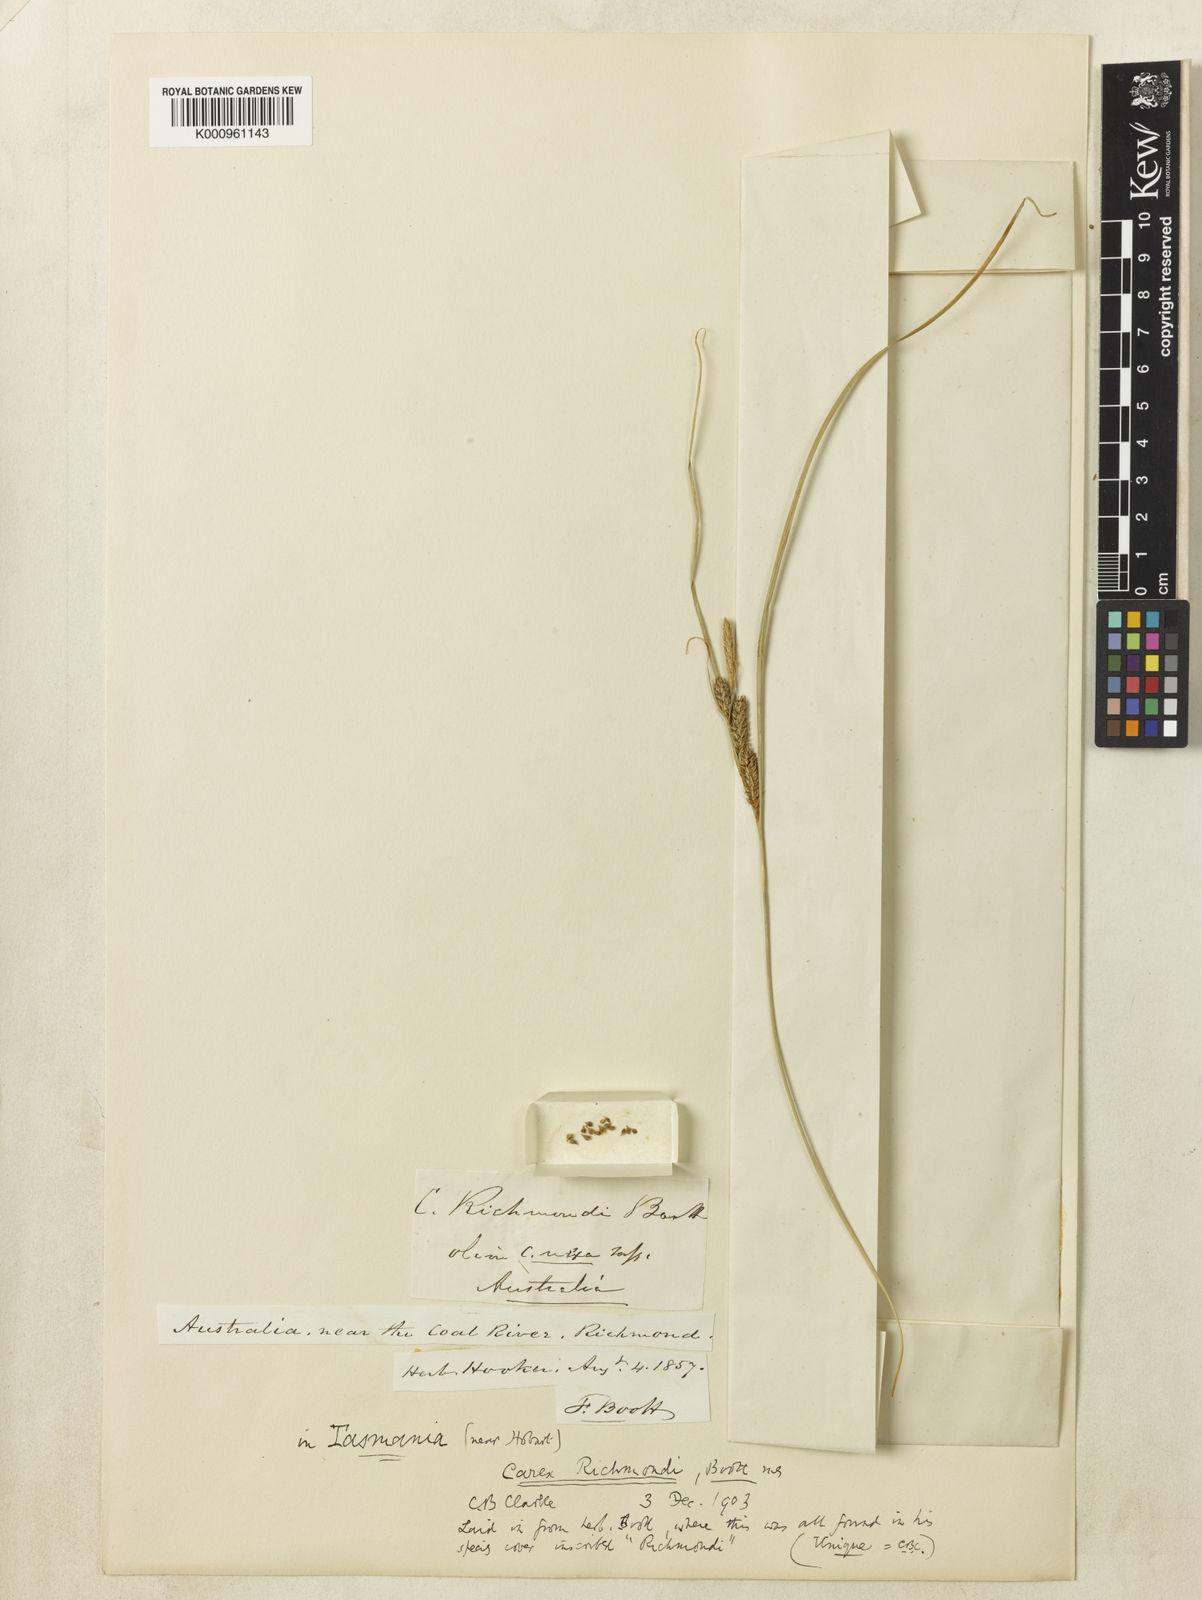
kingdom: Plantae
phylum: Tracheophyta
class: Liliopsida
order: Poales
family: Cyperaceae
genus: Carex
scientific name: Carex
